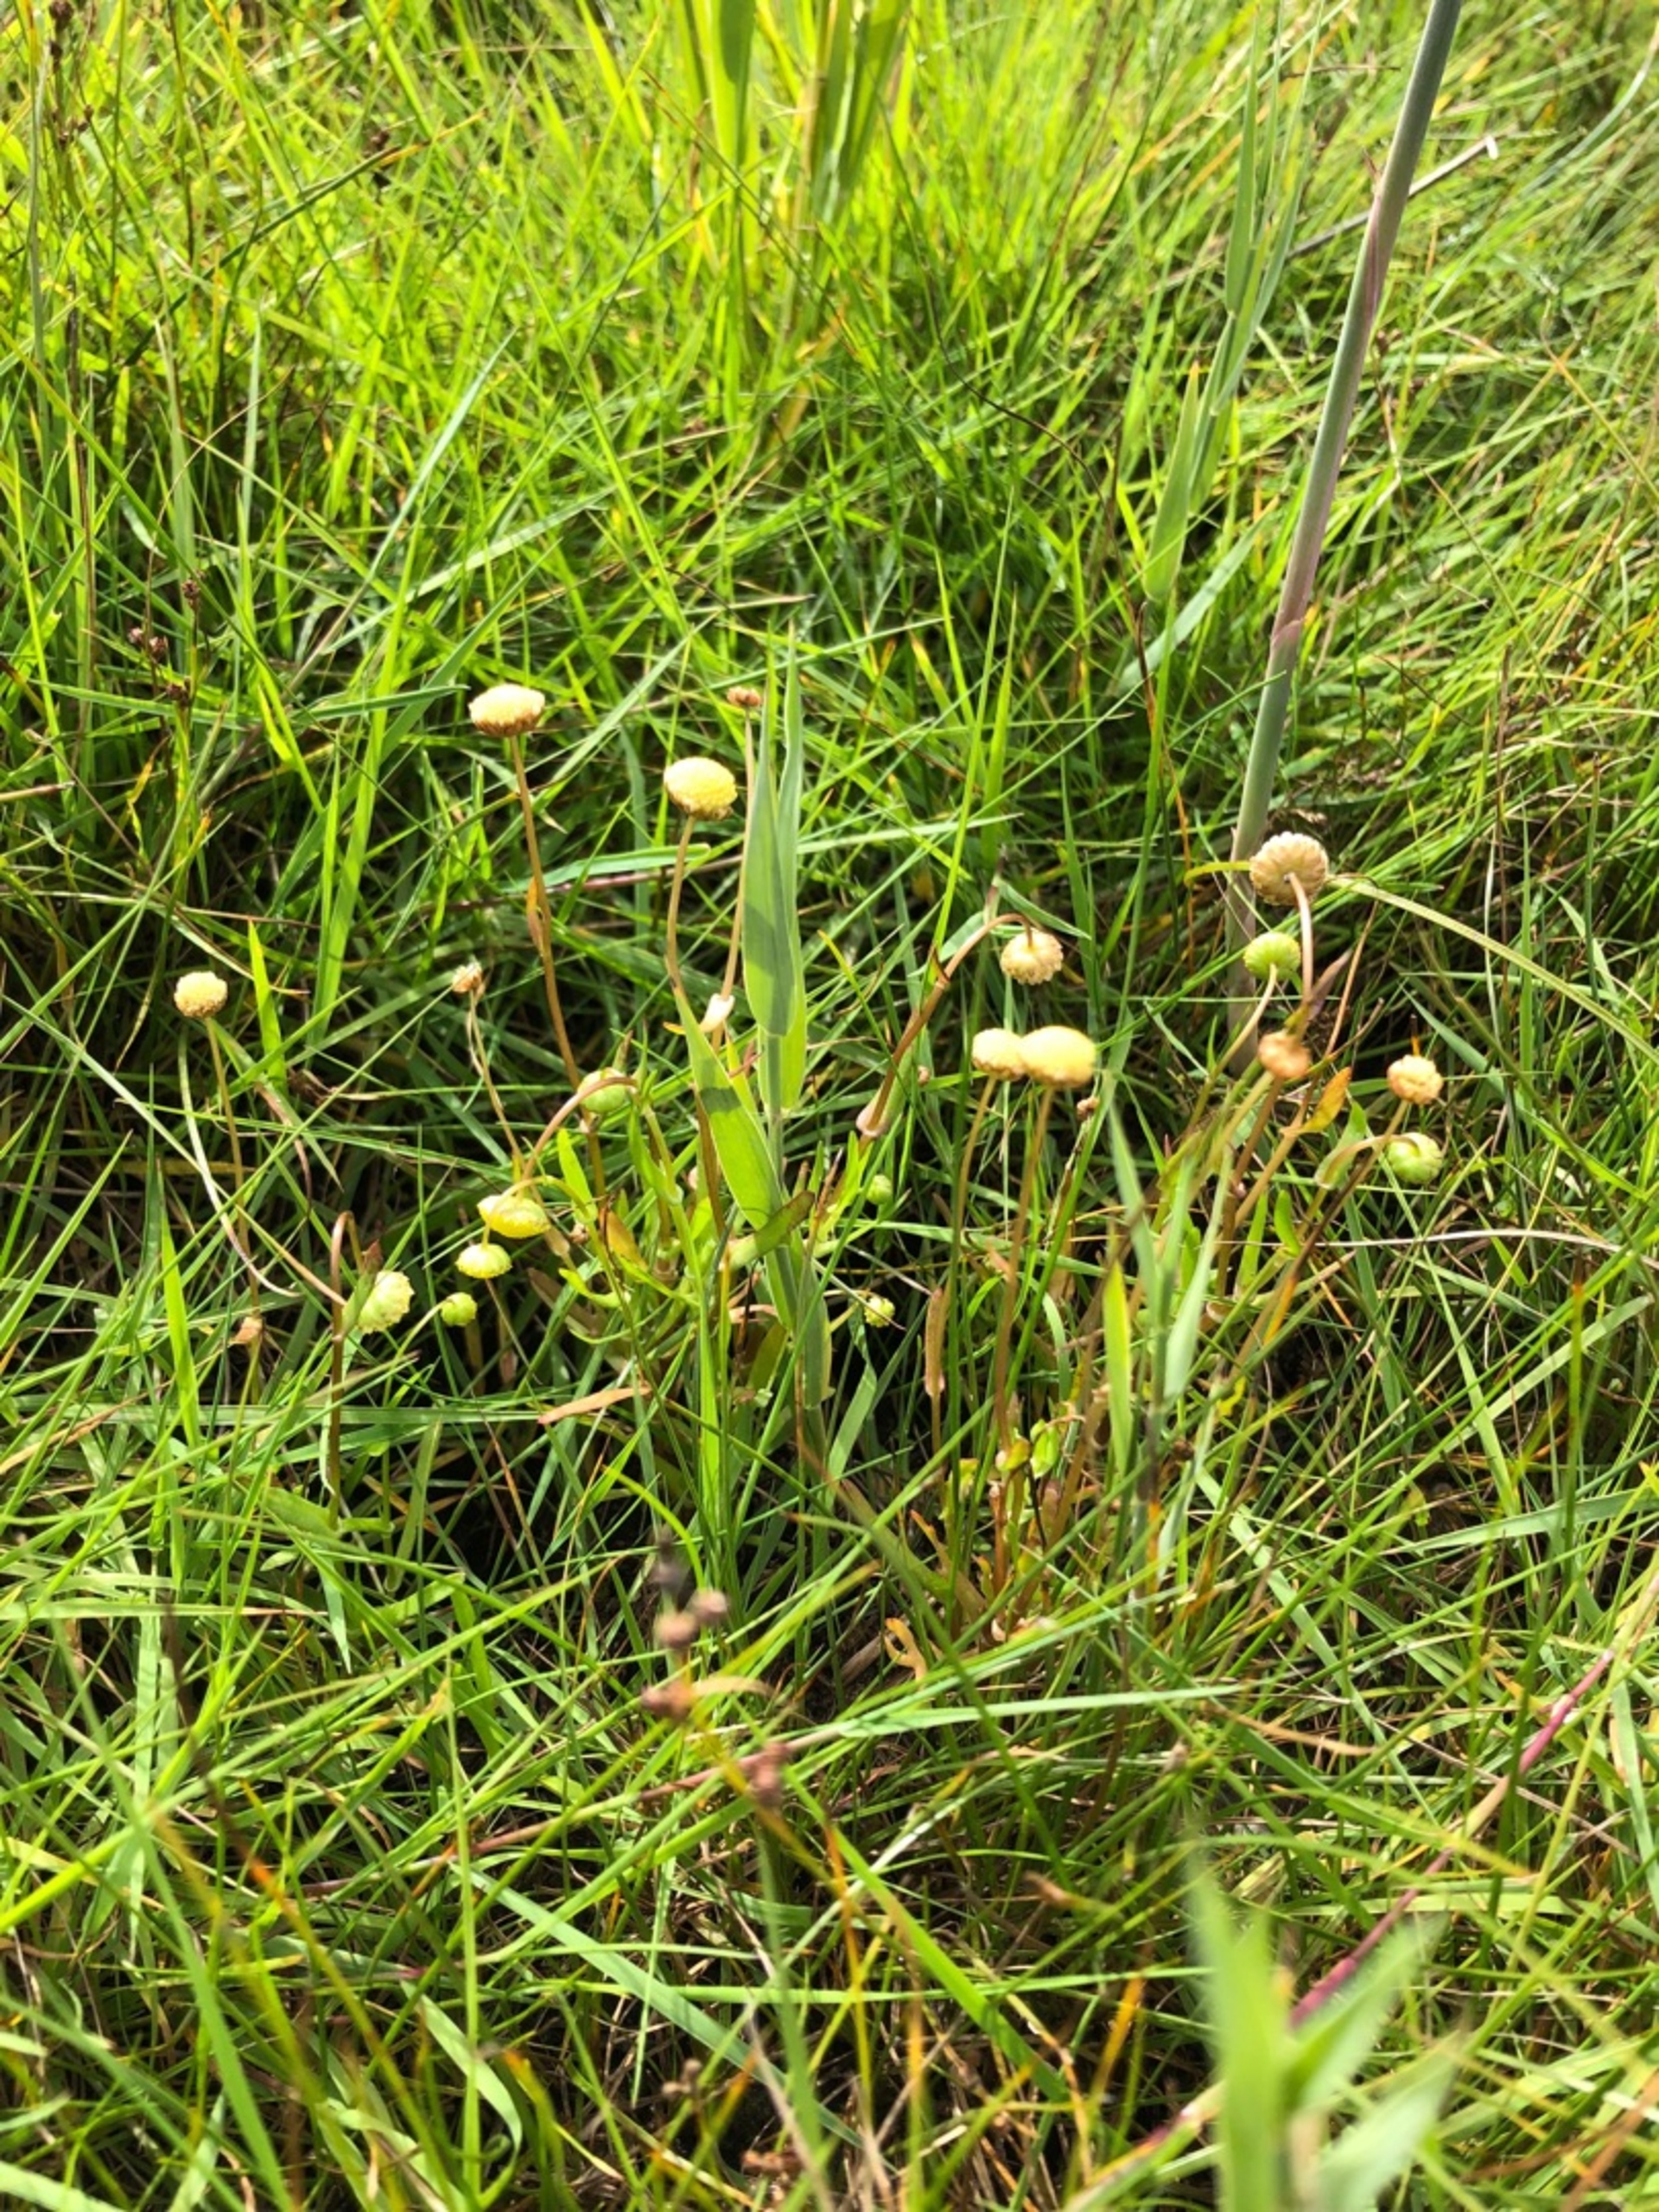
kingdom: Plantae
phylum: Tracheophyta
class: Magnoliopsida
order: Asterales
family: Asteraceae
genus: Cotula
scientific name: Cotula coronopifolia
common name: Firkløft
